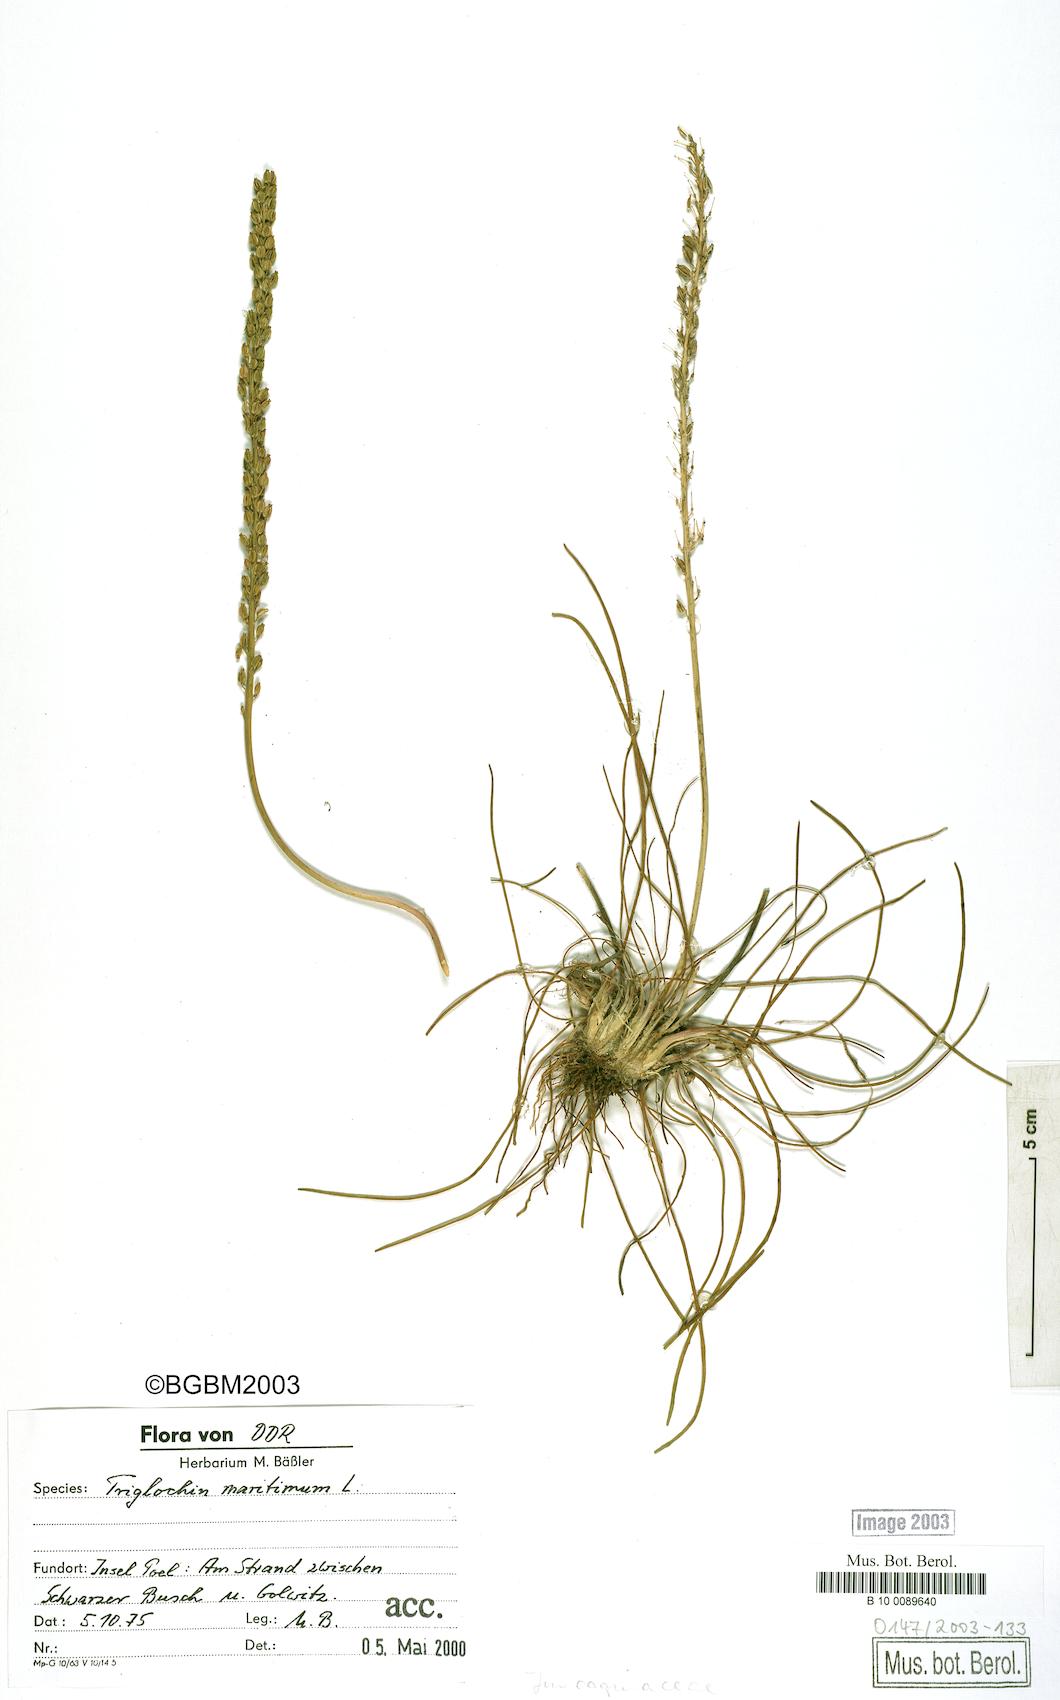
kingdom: Plantae
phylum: Tracheophyta
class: Liliopsida
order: Alismatales
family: Juncaginaceae
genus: Triglochin
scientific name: Triglochin maritima
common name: Sea arrowgrass
